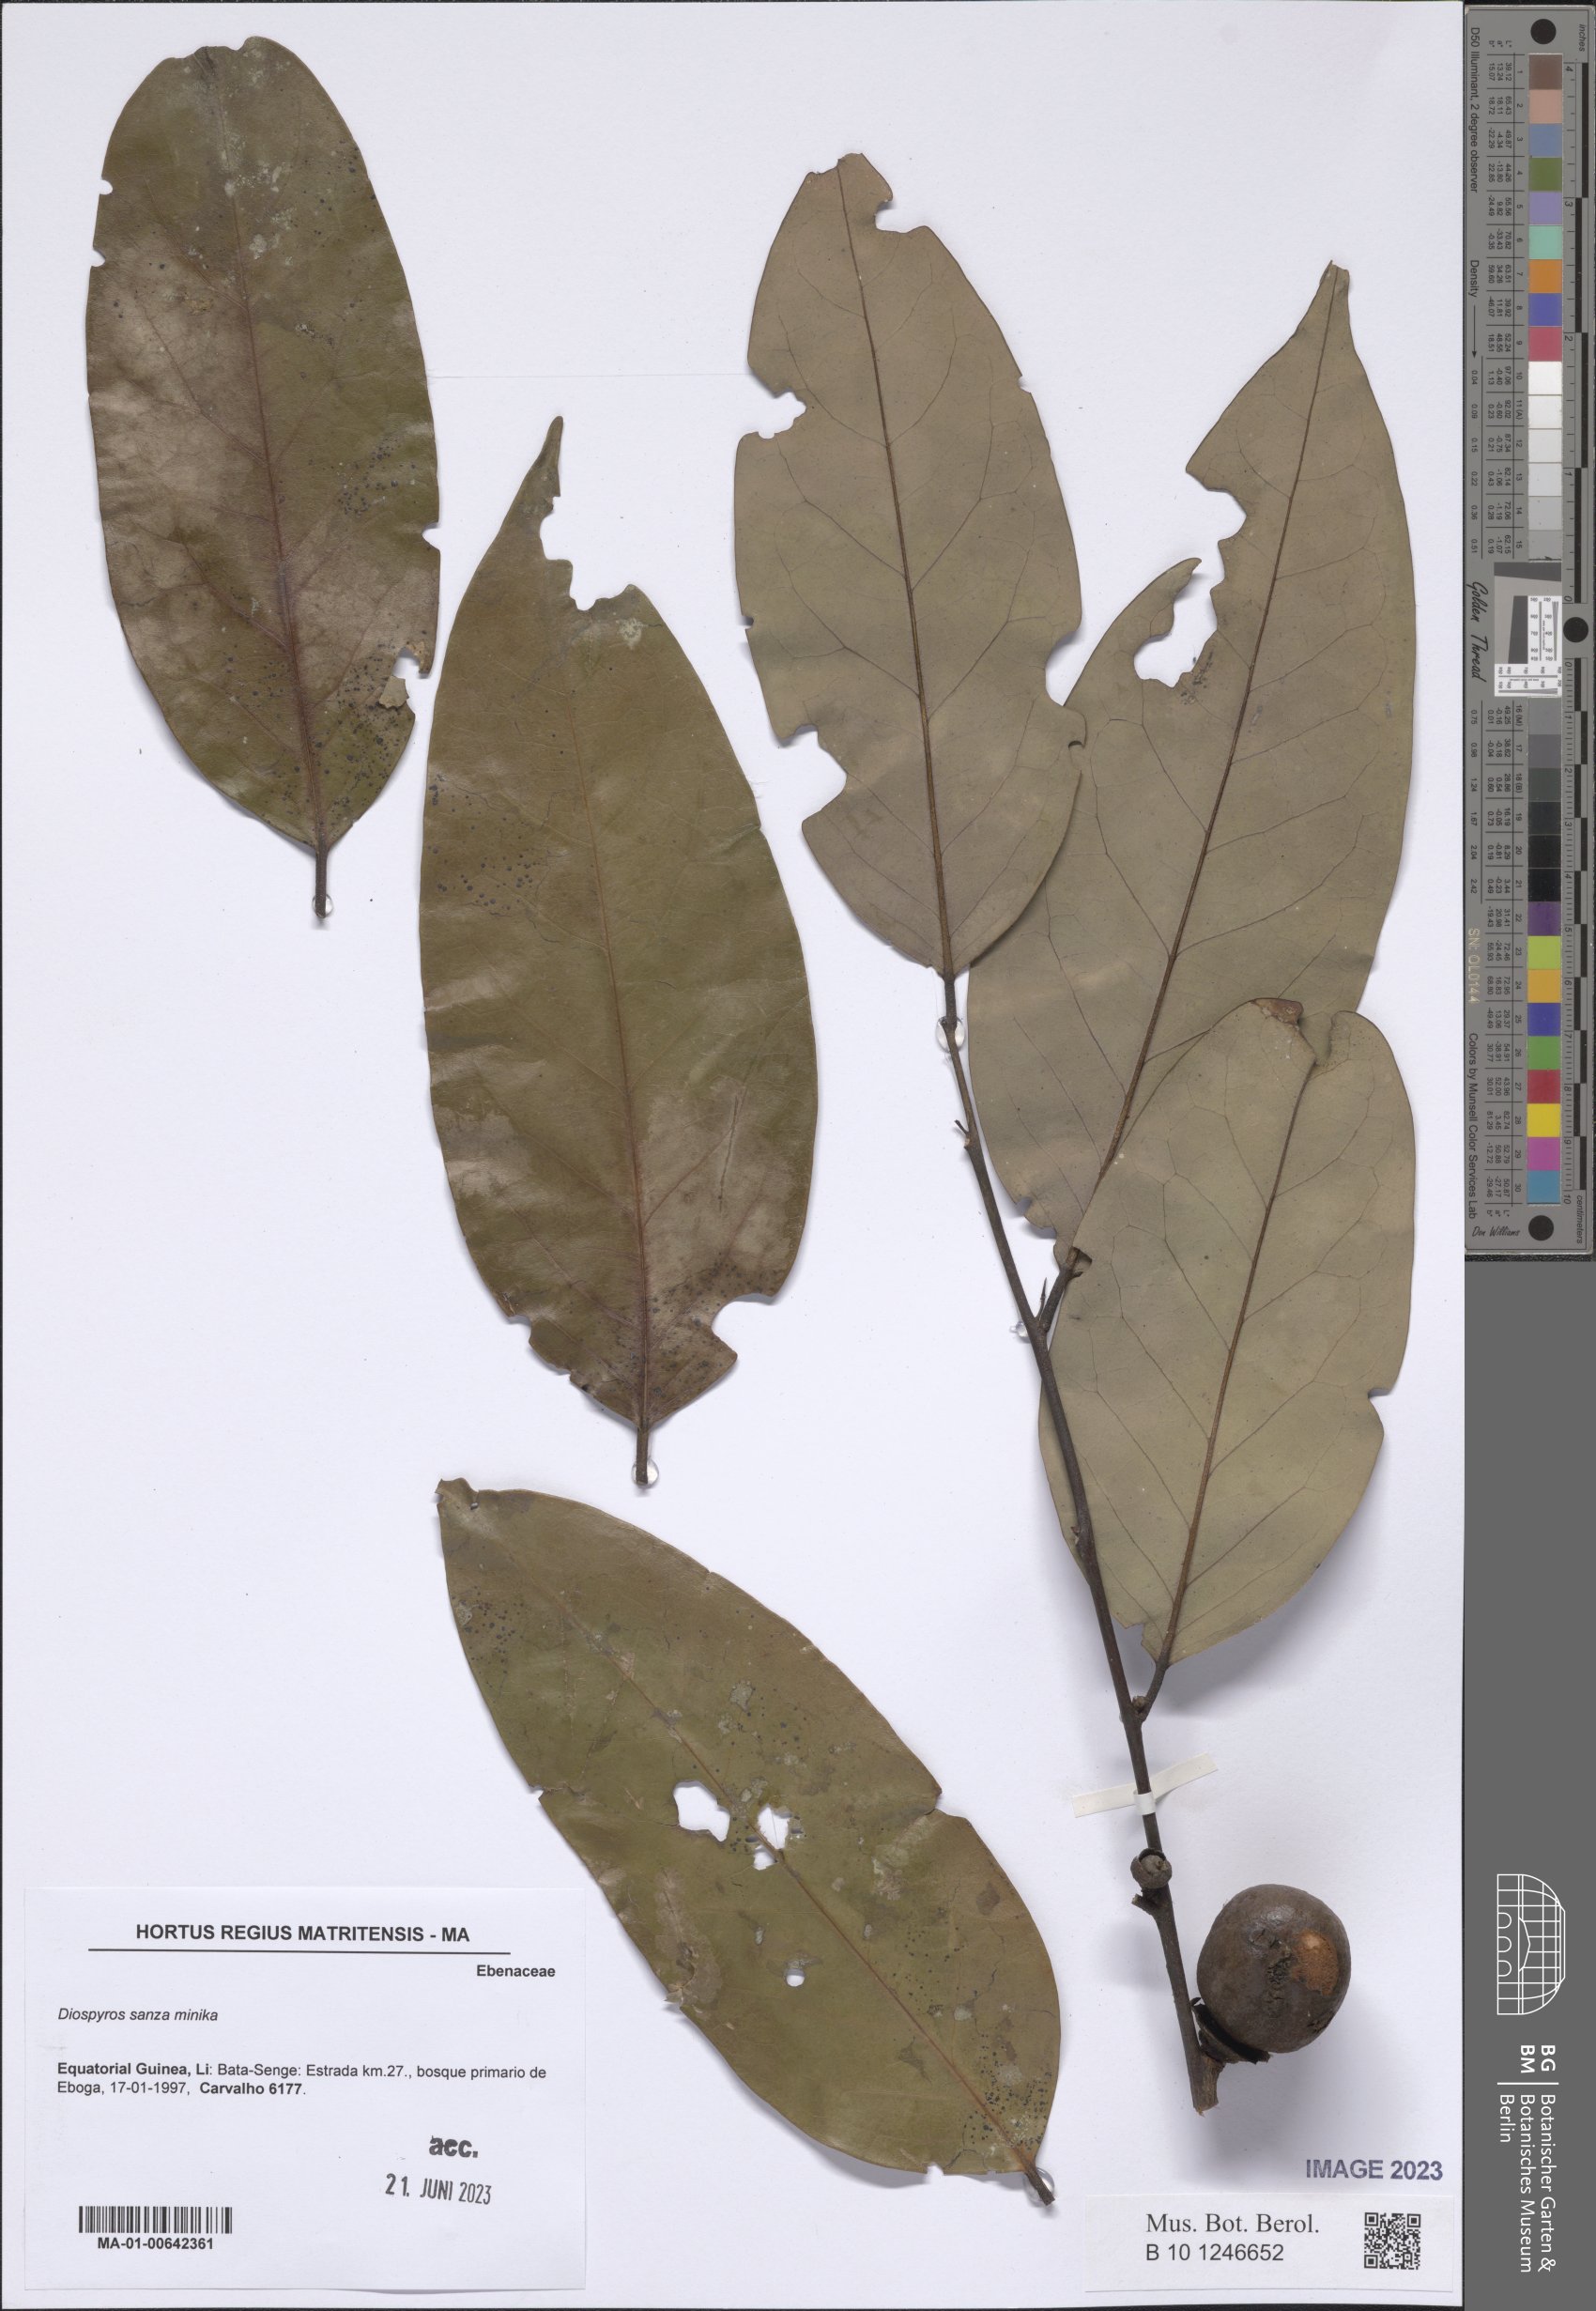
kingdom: Plantae
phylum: Tracheophyta
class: Magnoliopsida
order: Ericales
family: Ebenaceae
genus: Diospyros
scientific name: Diospyros sanza-minika
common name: Flint bark
